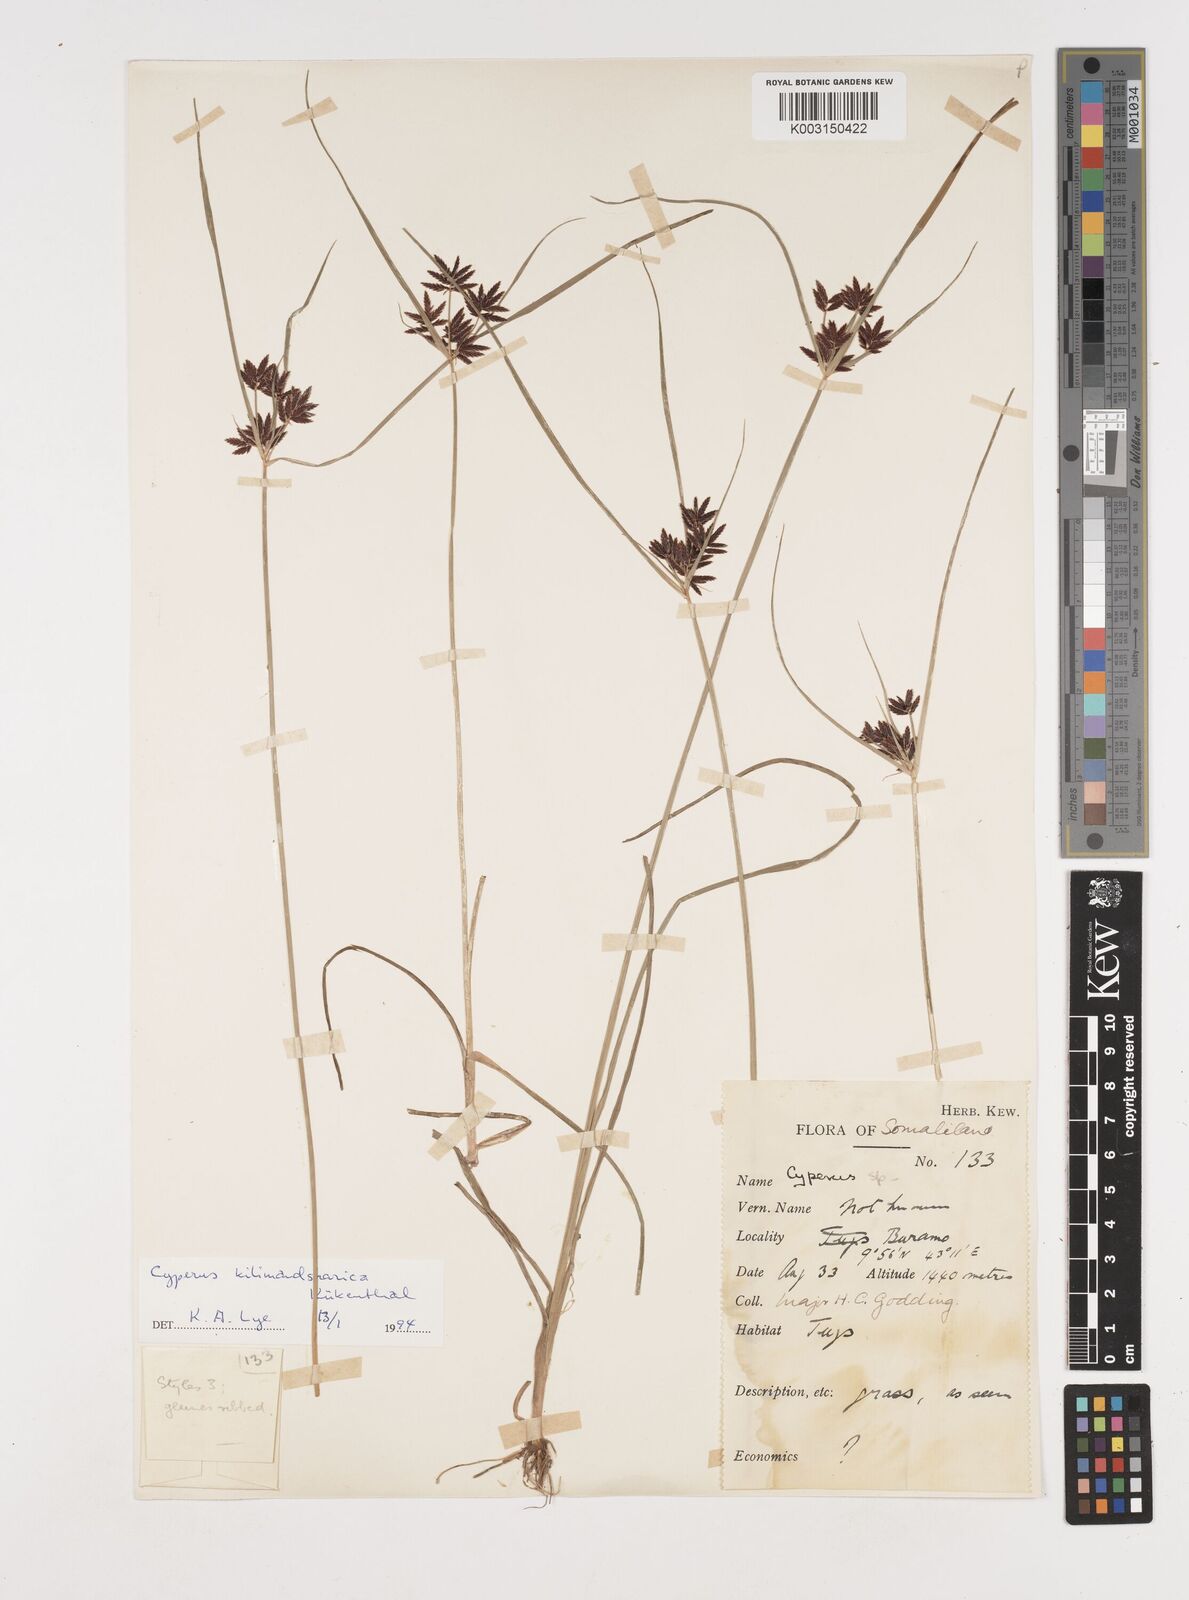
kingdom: Plantae
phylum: Tracheophyta
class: Liliopsida
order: Poales
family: Cyperaceae
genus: Cyperus
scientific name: Cyperus kilimandscharicus
